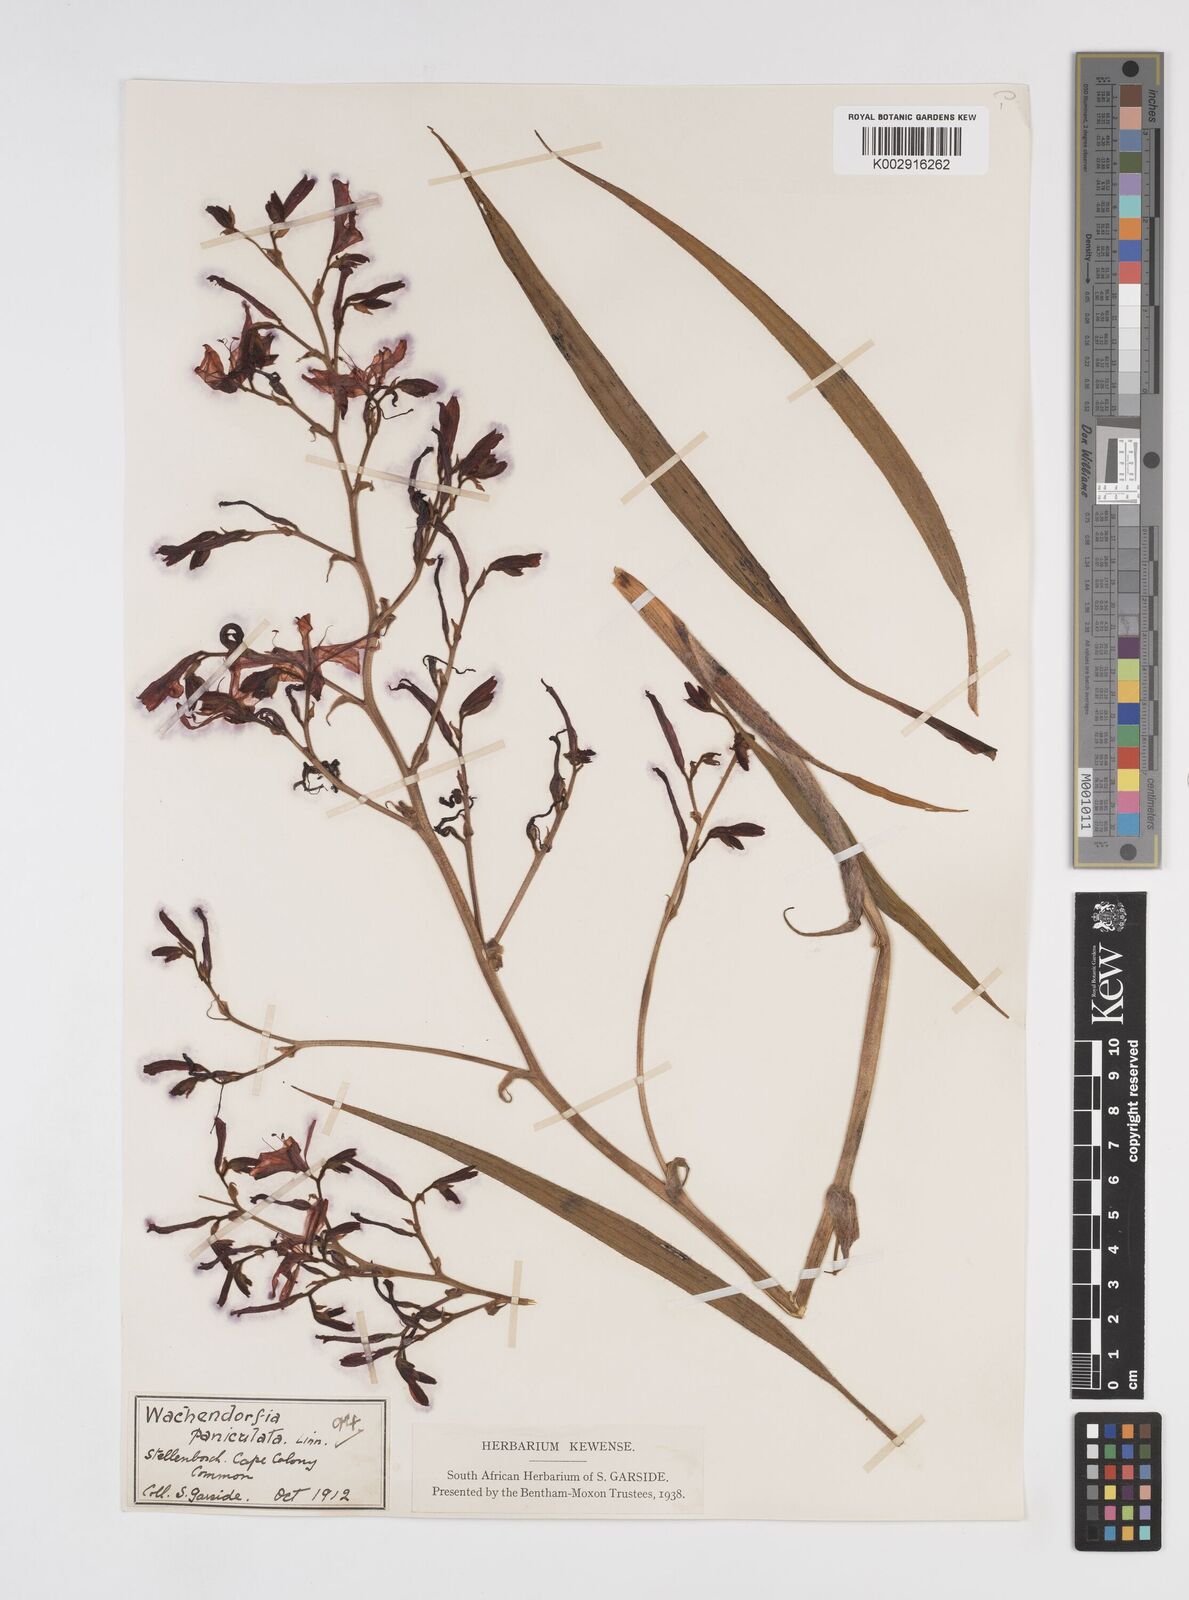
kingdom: Plantae
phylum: Tracheophyta
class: Liliopsida
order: Commelinales
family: Haemodoraceae
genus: Wachendorfia
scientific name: Wachendorfia paniculata
